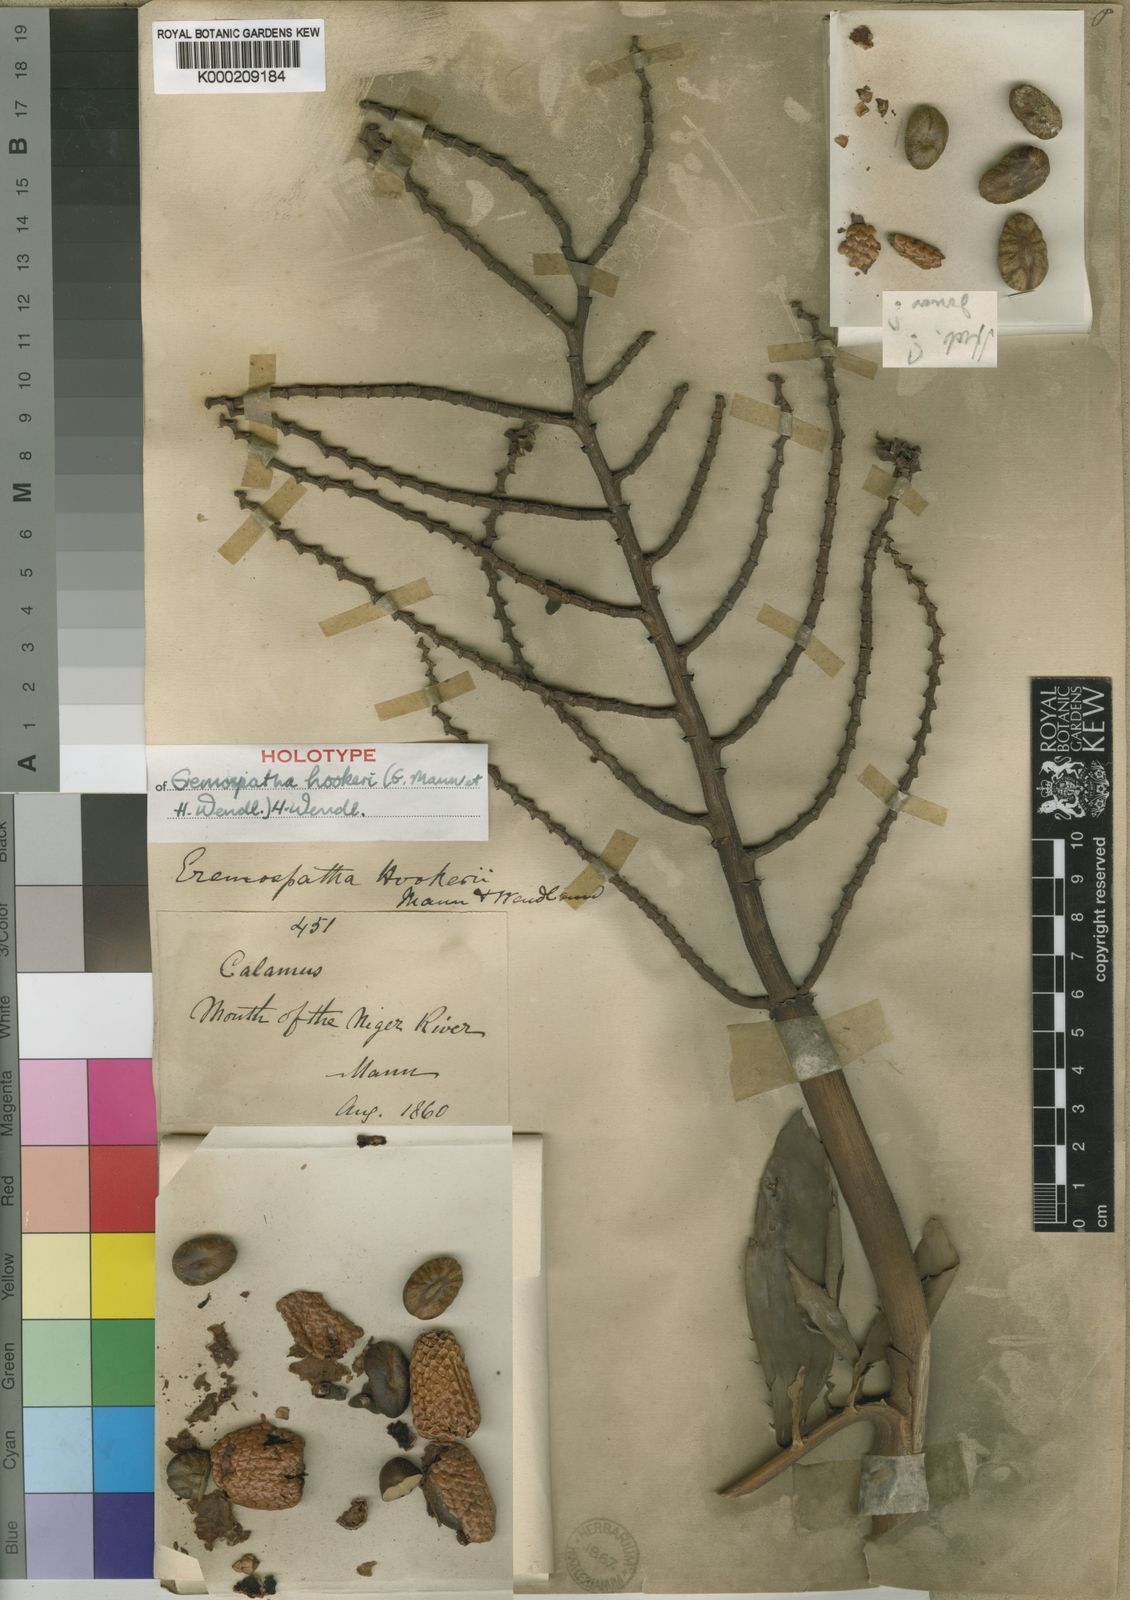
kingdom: Plantae
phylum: Tracheophyta
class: Liliopsida
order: Arecales
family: Arecaceae
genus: Eremospatha
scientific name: Eremospatha hookeri
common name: Rattan
